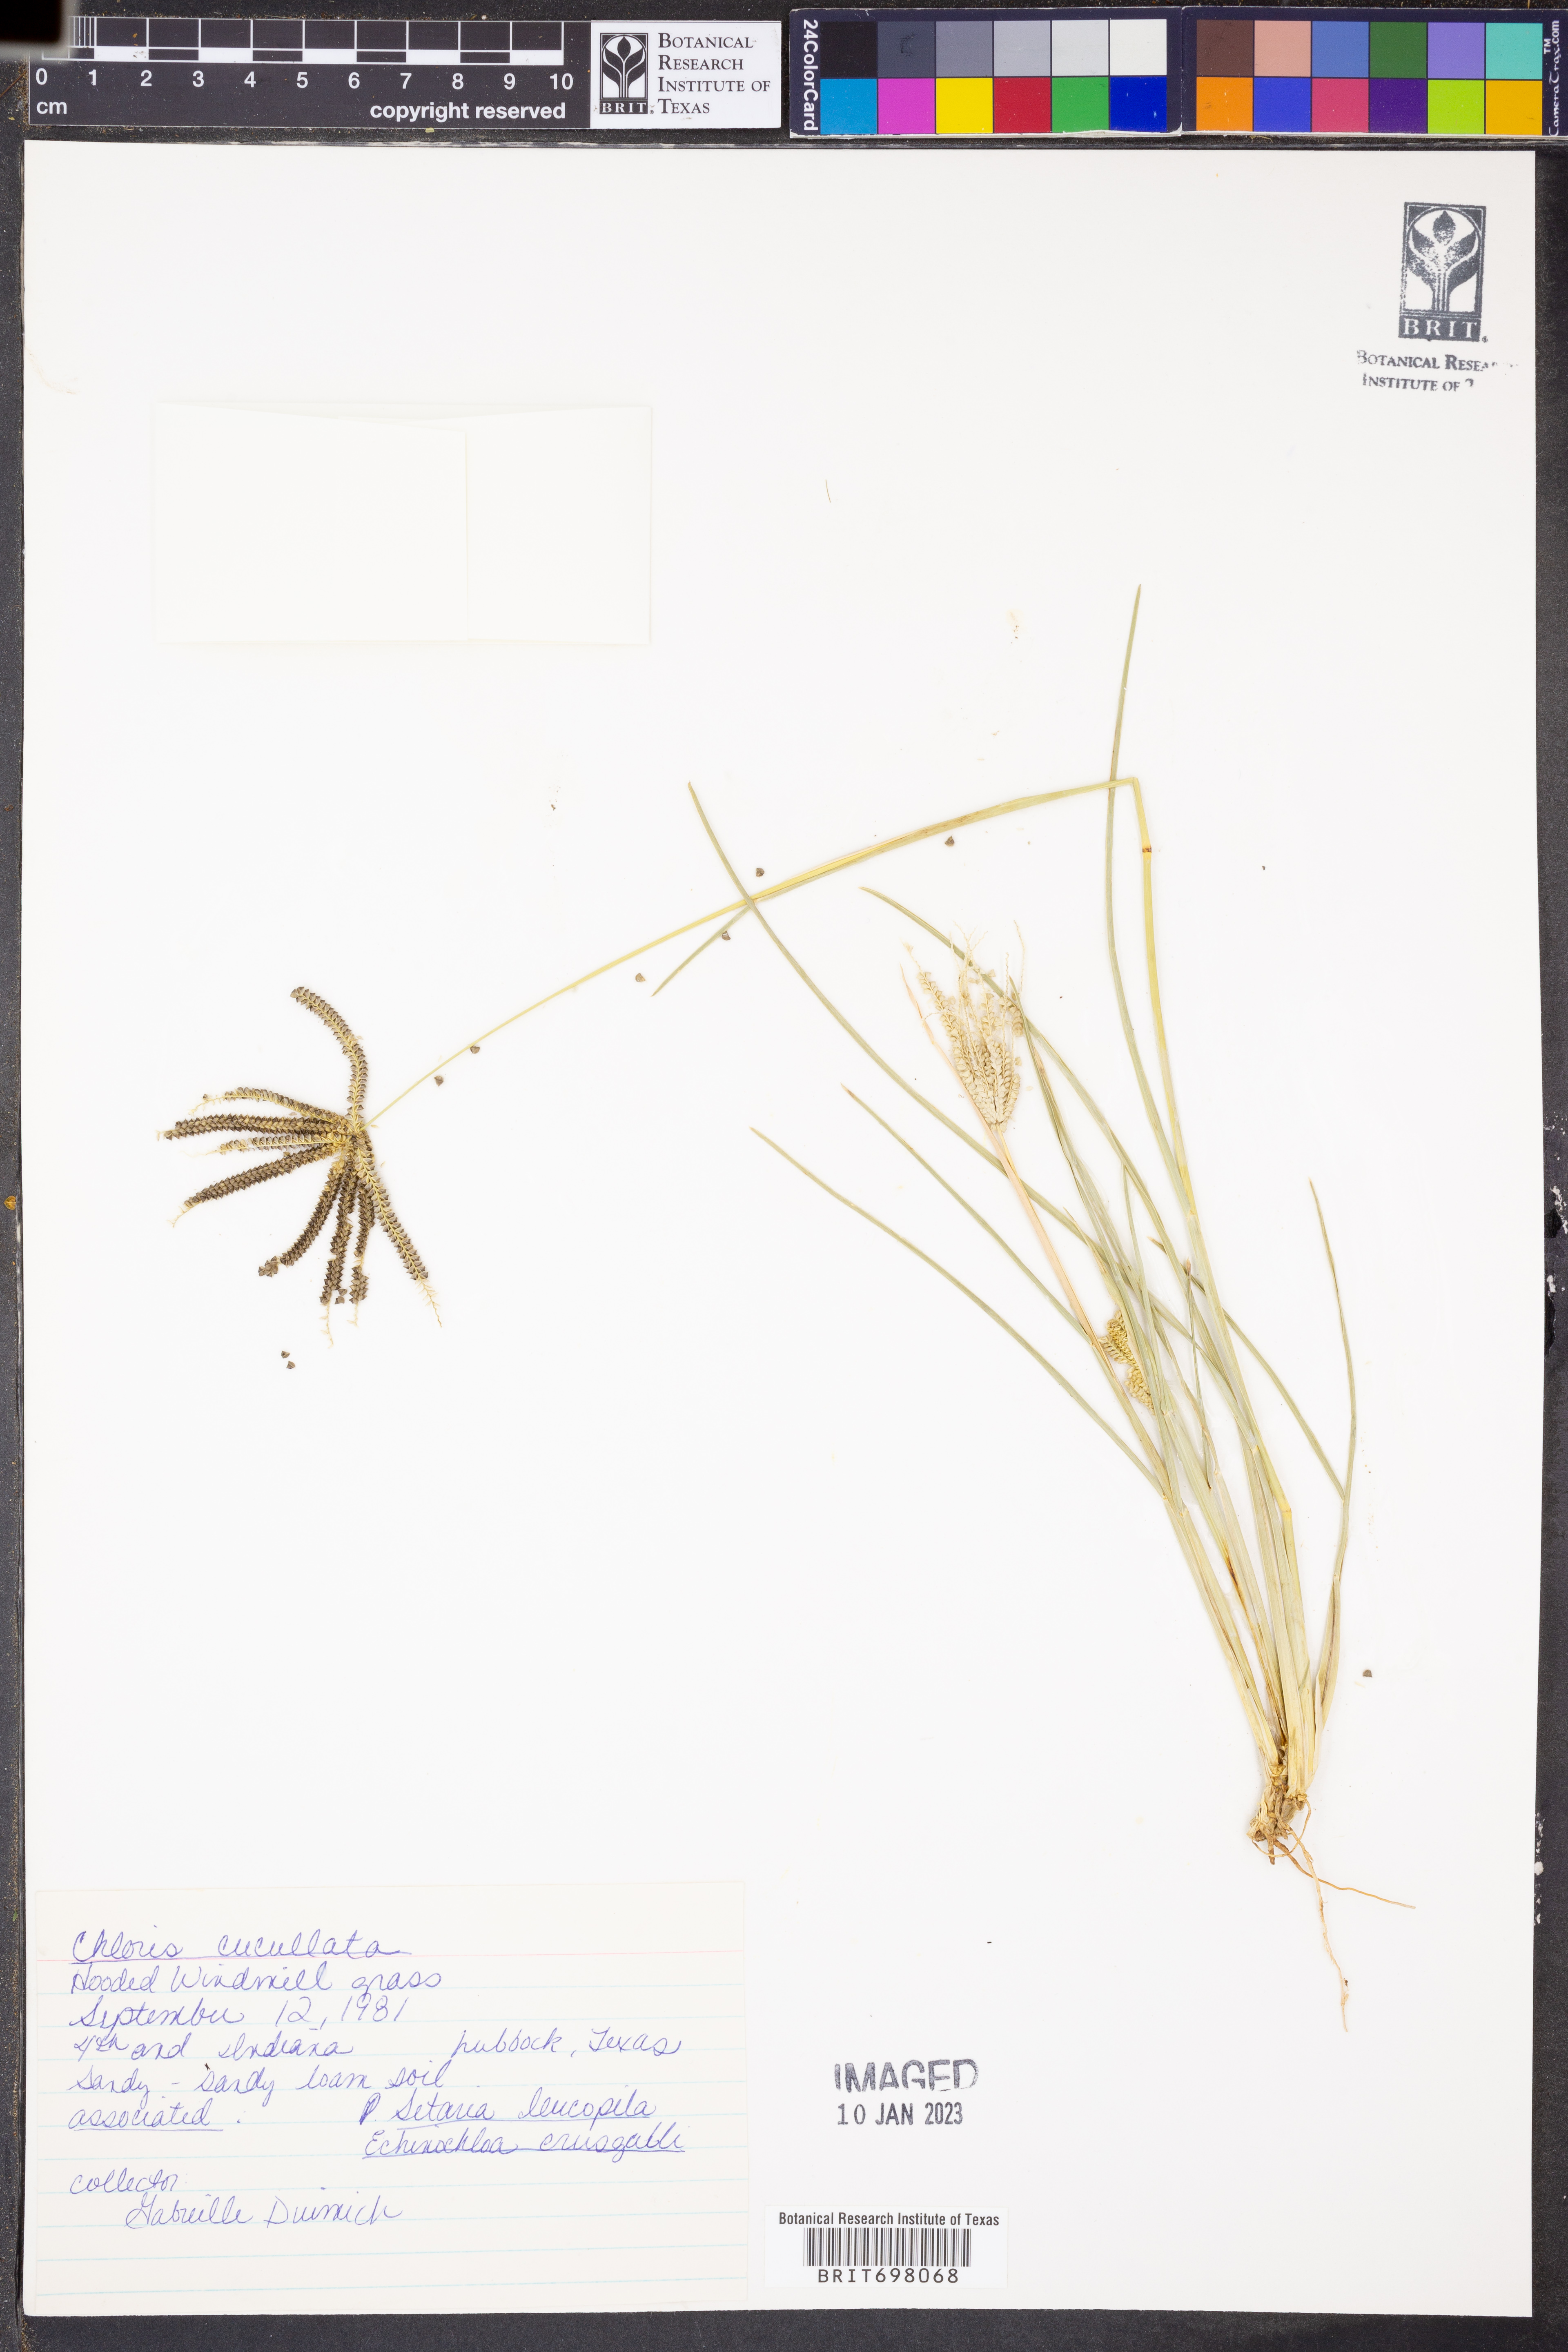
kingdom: Plantae
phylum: Tracheophyta
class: Liliopsida
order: Poales
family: Poaceae
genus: Chloris
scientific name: Chloris cucullata
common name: Hooded windmill grass
